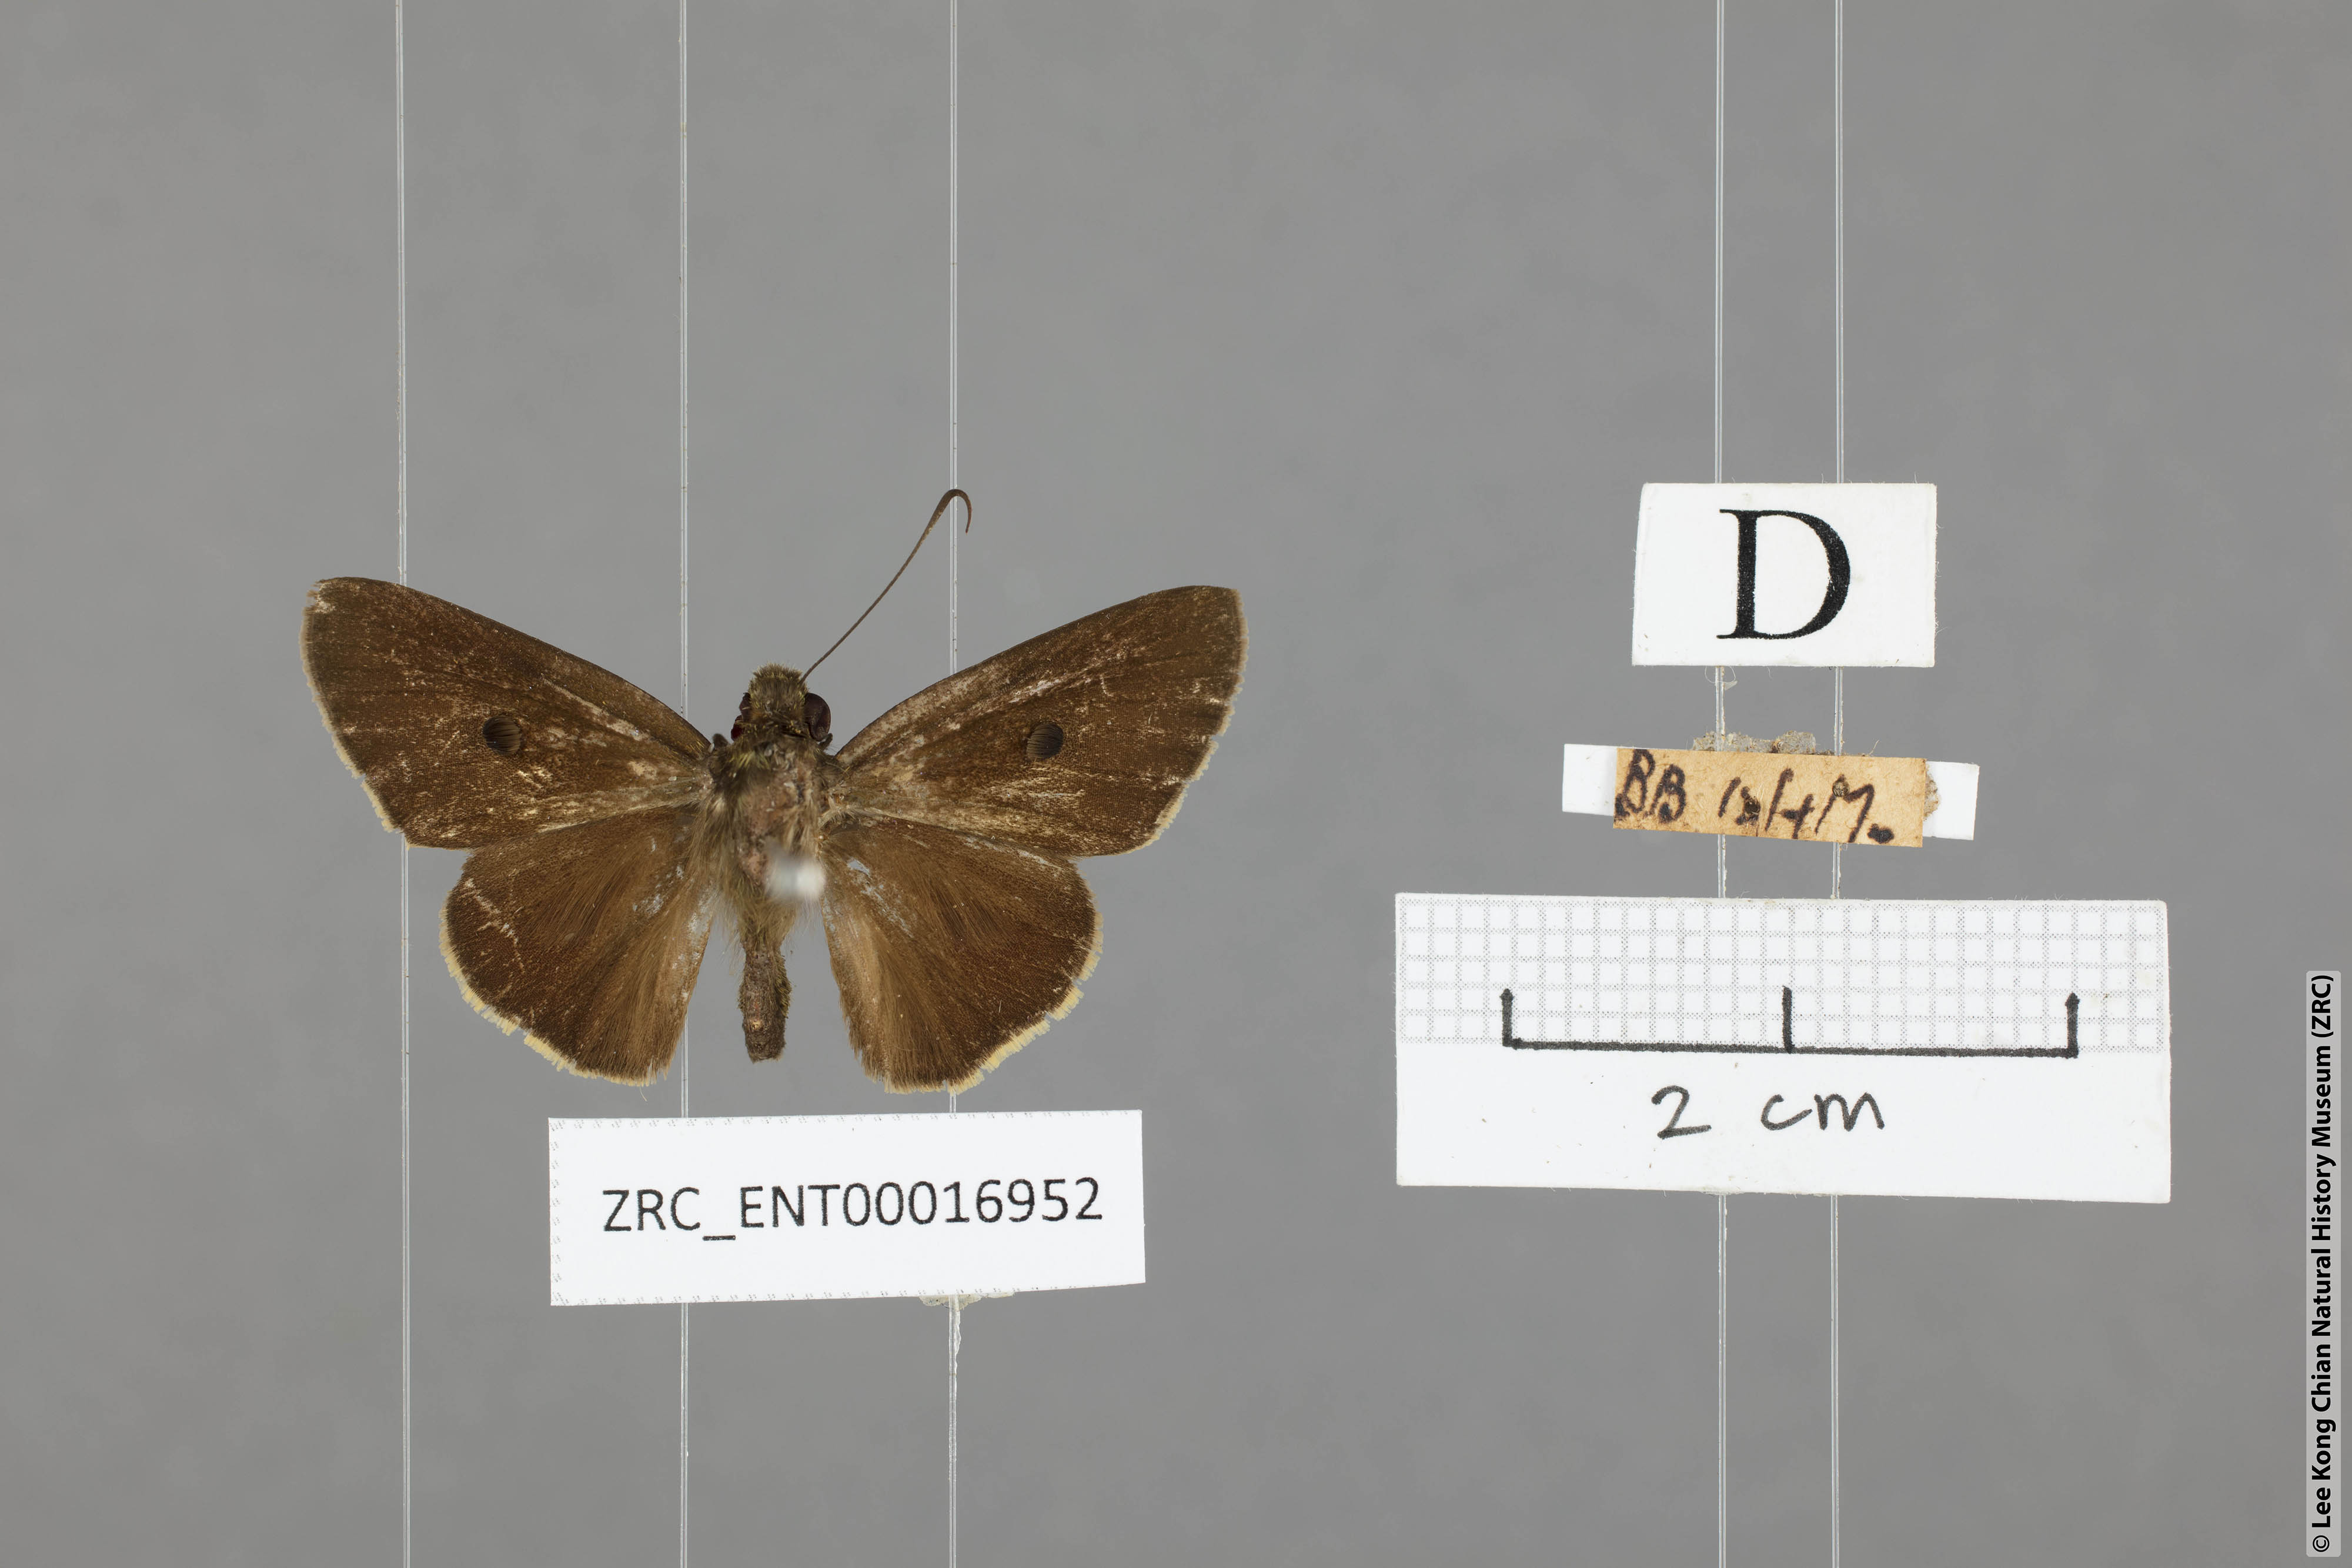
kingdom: Animalia
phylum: Arthropoda
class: Insecta
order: Lepidoptera
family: Hesperiidae
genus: Ge
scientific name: Ge
